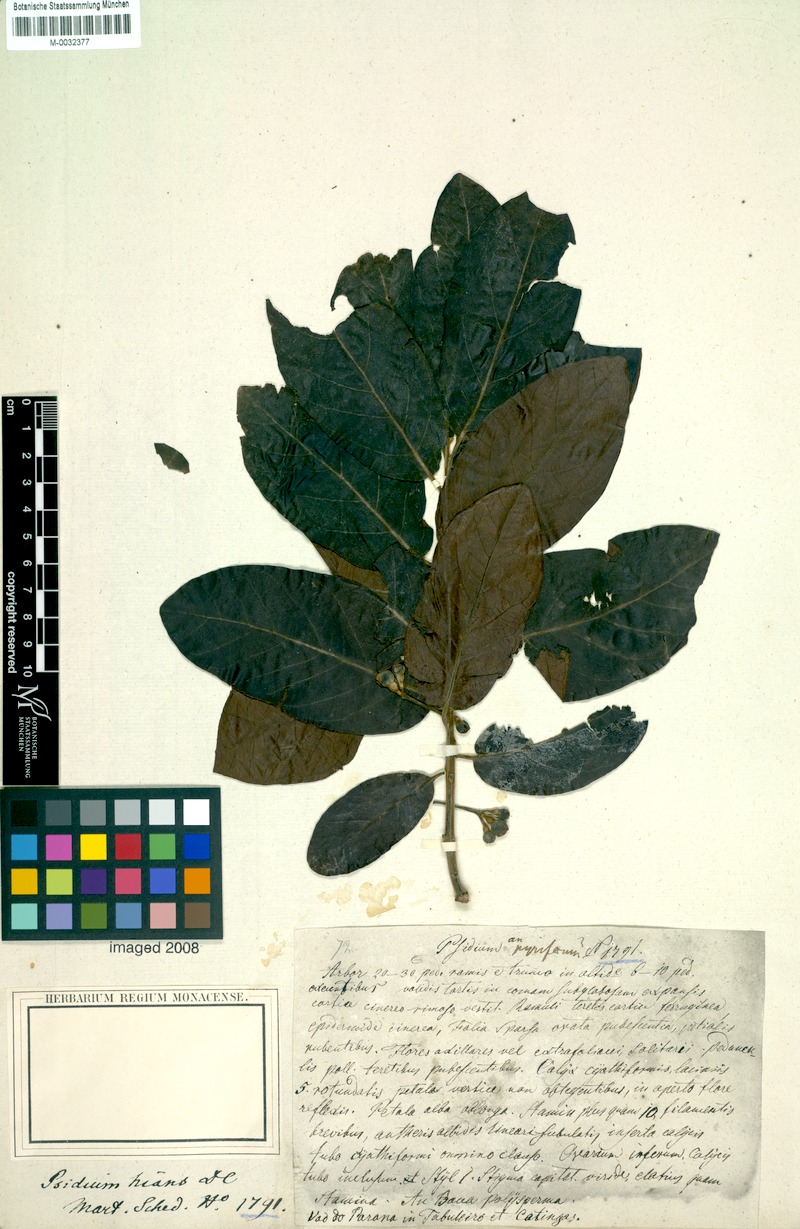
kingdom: Plantae
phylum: Tracheophyta
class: Magnoliopsida
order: Myrtales
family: Myrtaceae
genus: Campomanesia
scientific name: Campomanesia pubescens
